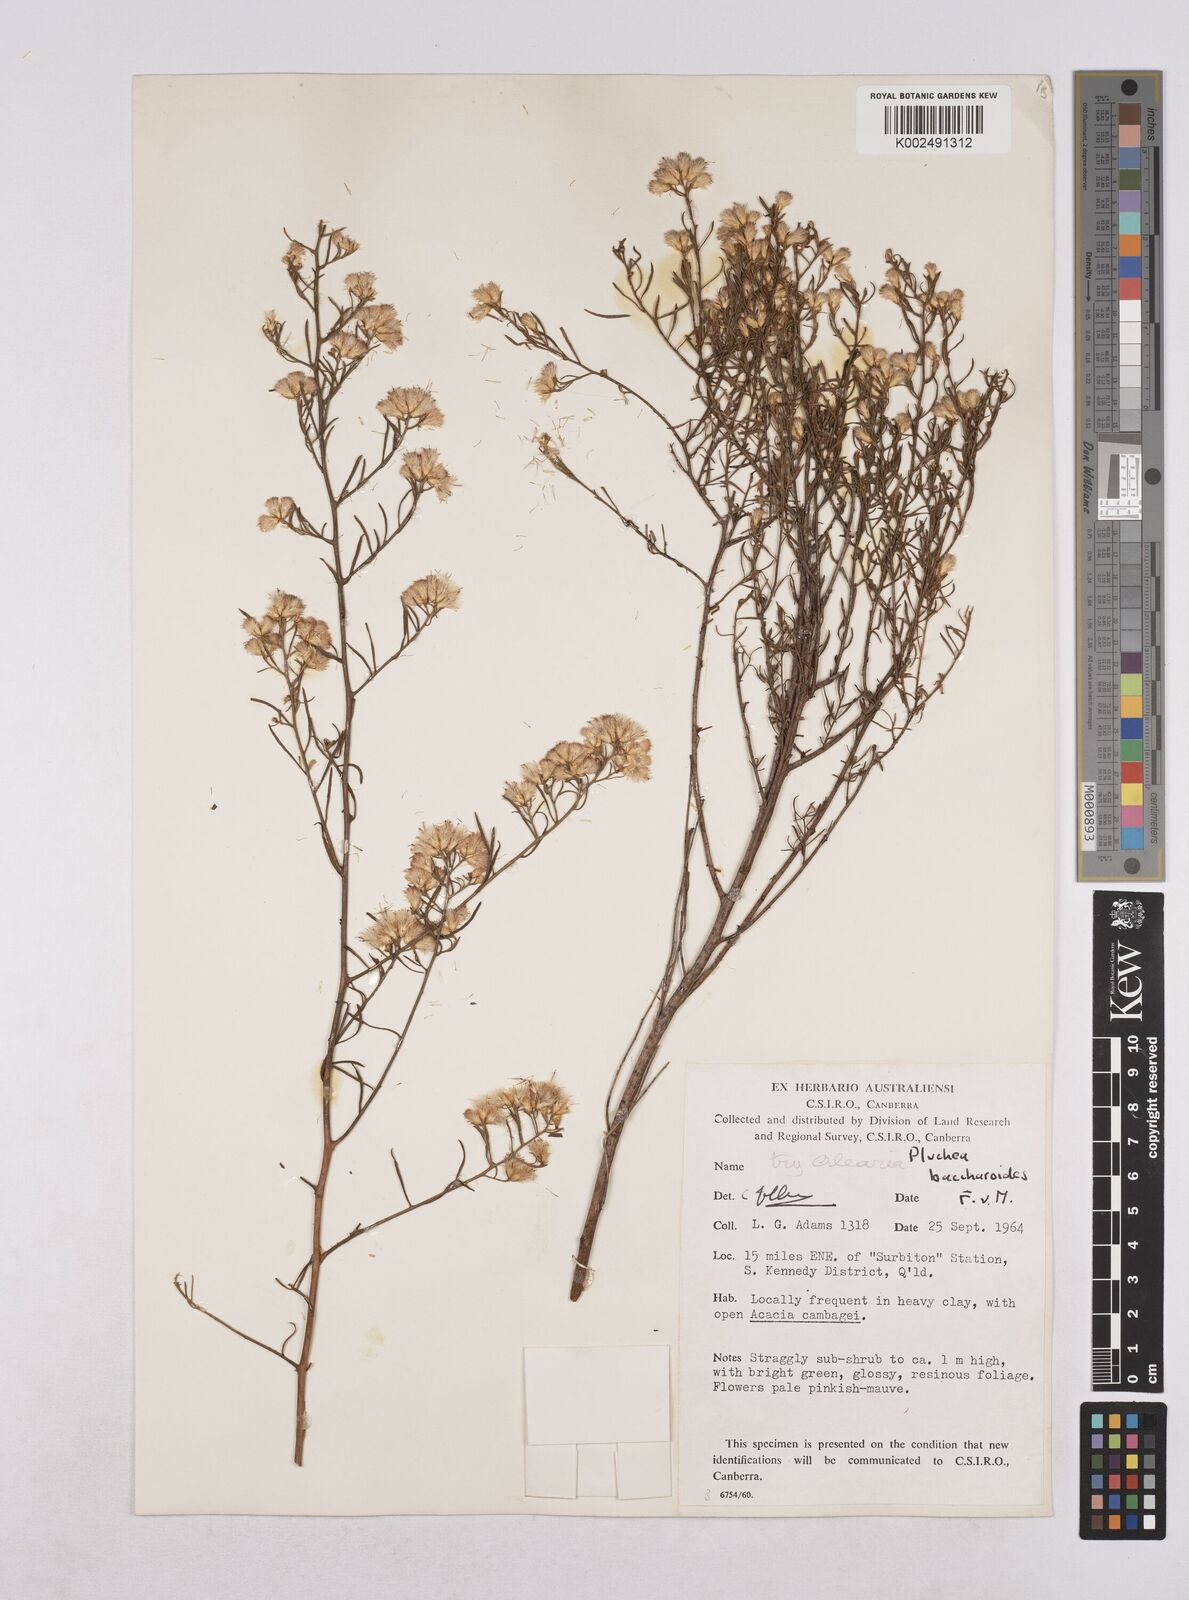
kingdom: Plantae
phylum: Tracheophyta
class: Magnoliopsida
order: Asterales
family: Asteraceae
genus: Pluchea
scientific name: Pluchea baccharoides
